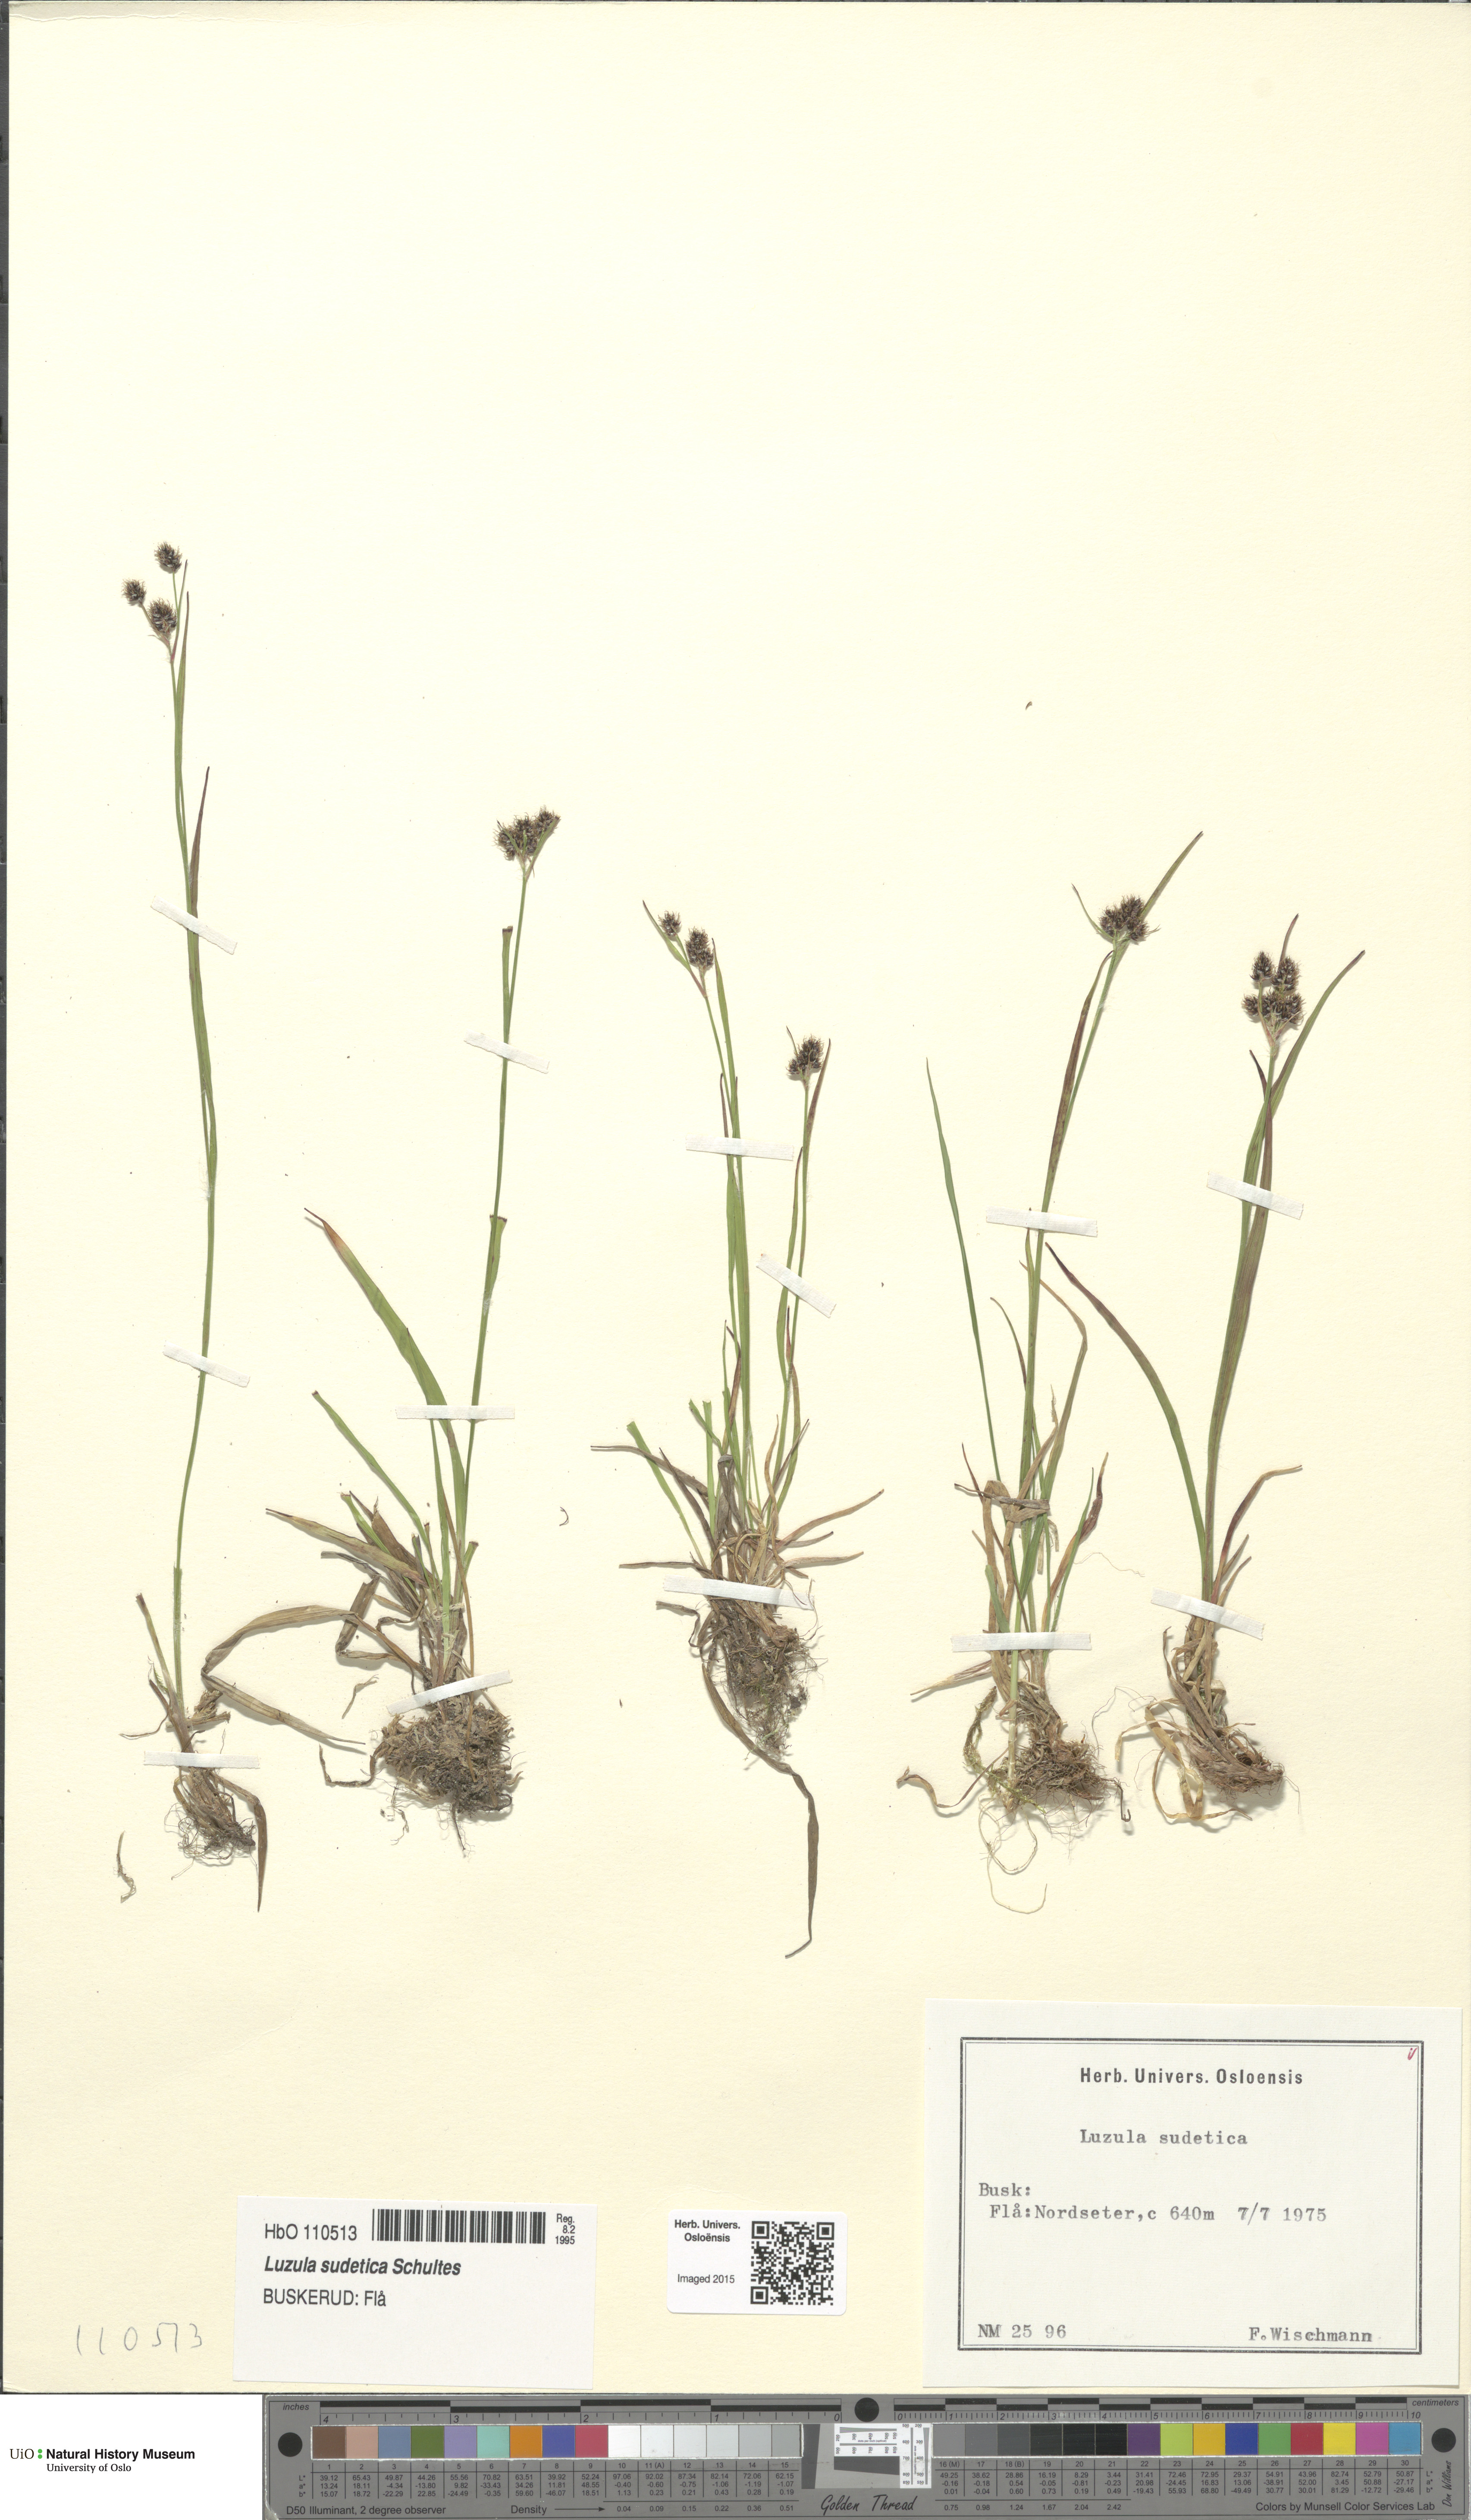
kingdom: Plantae
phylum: Tracheophyta
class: Liliopsida
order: Poales
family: Juncaceae
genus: Luzula
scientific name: Luzula sudetica
